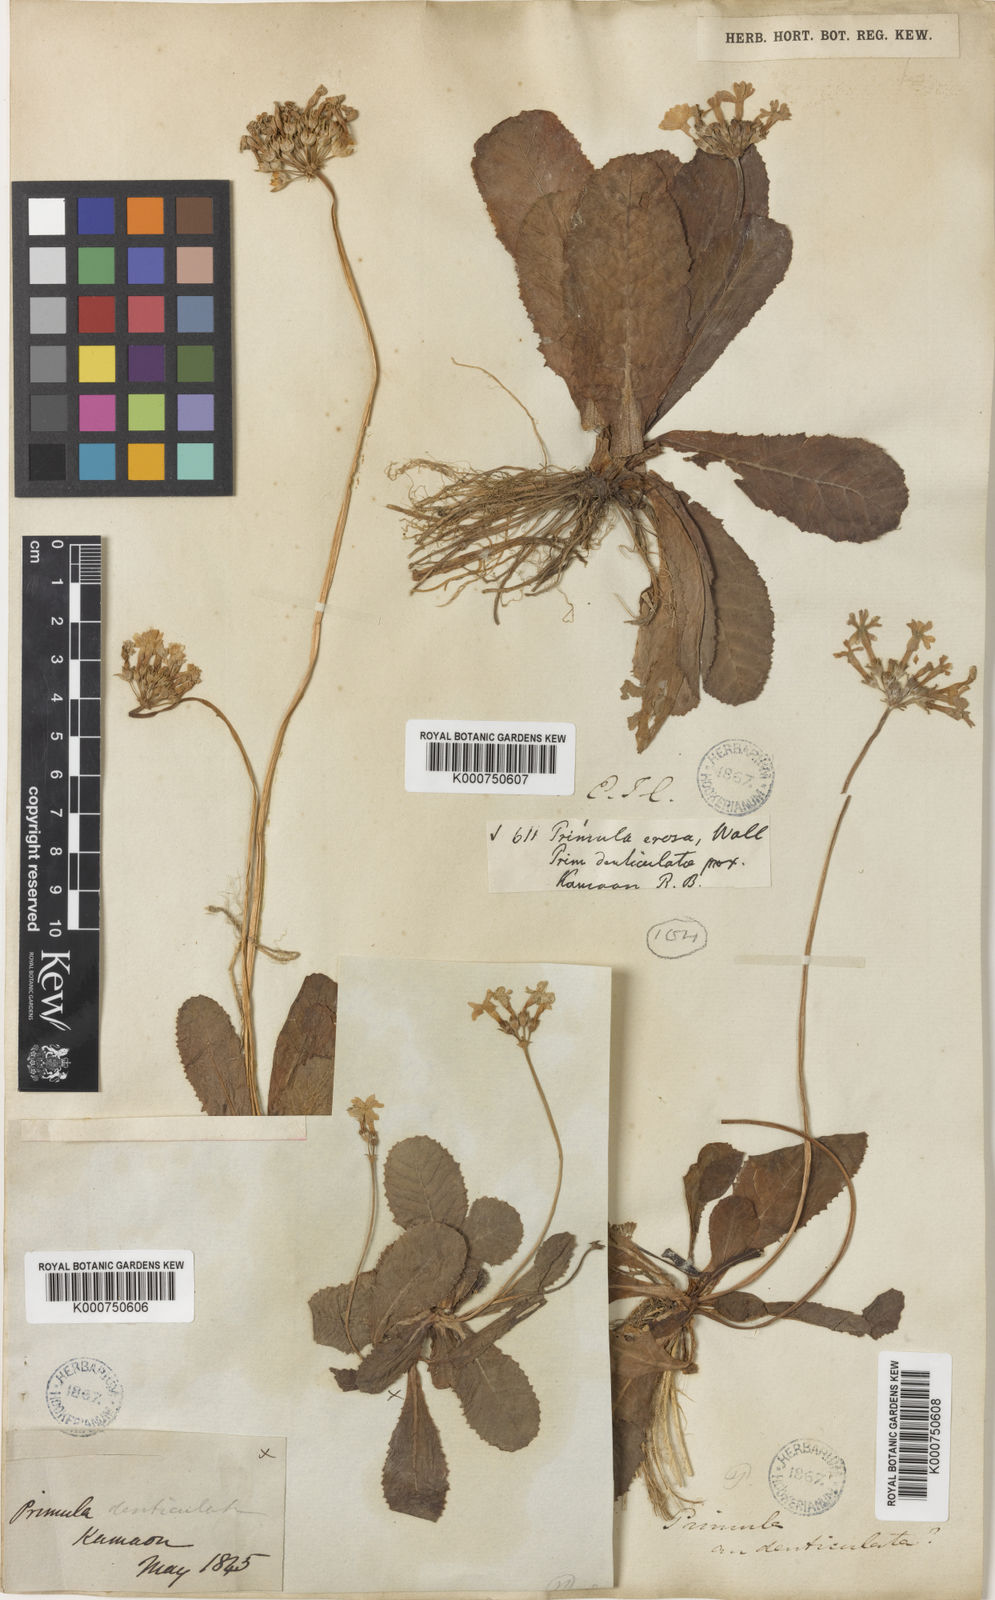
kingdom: Plantae
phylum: Tracheophyta
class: Magnoliopsida
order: Ericales
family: Primulaceae
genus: Primula
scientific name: Primula
